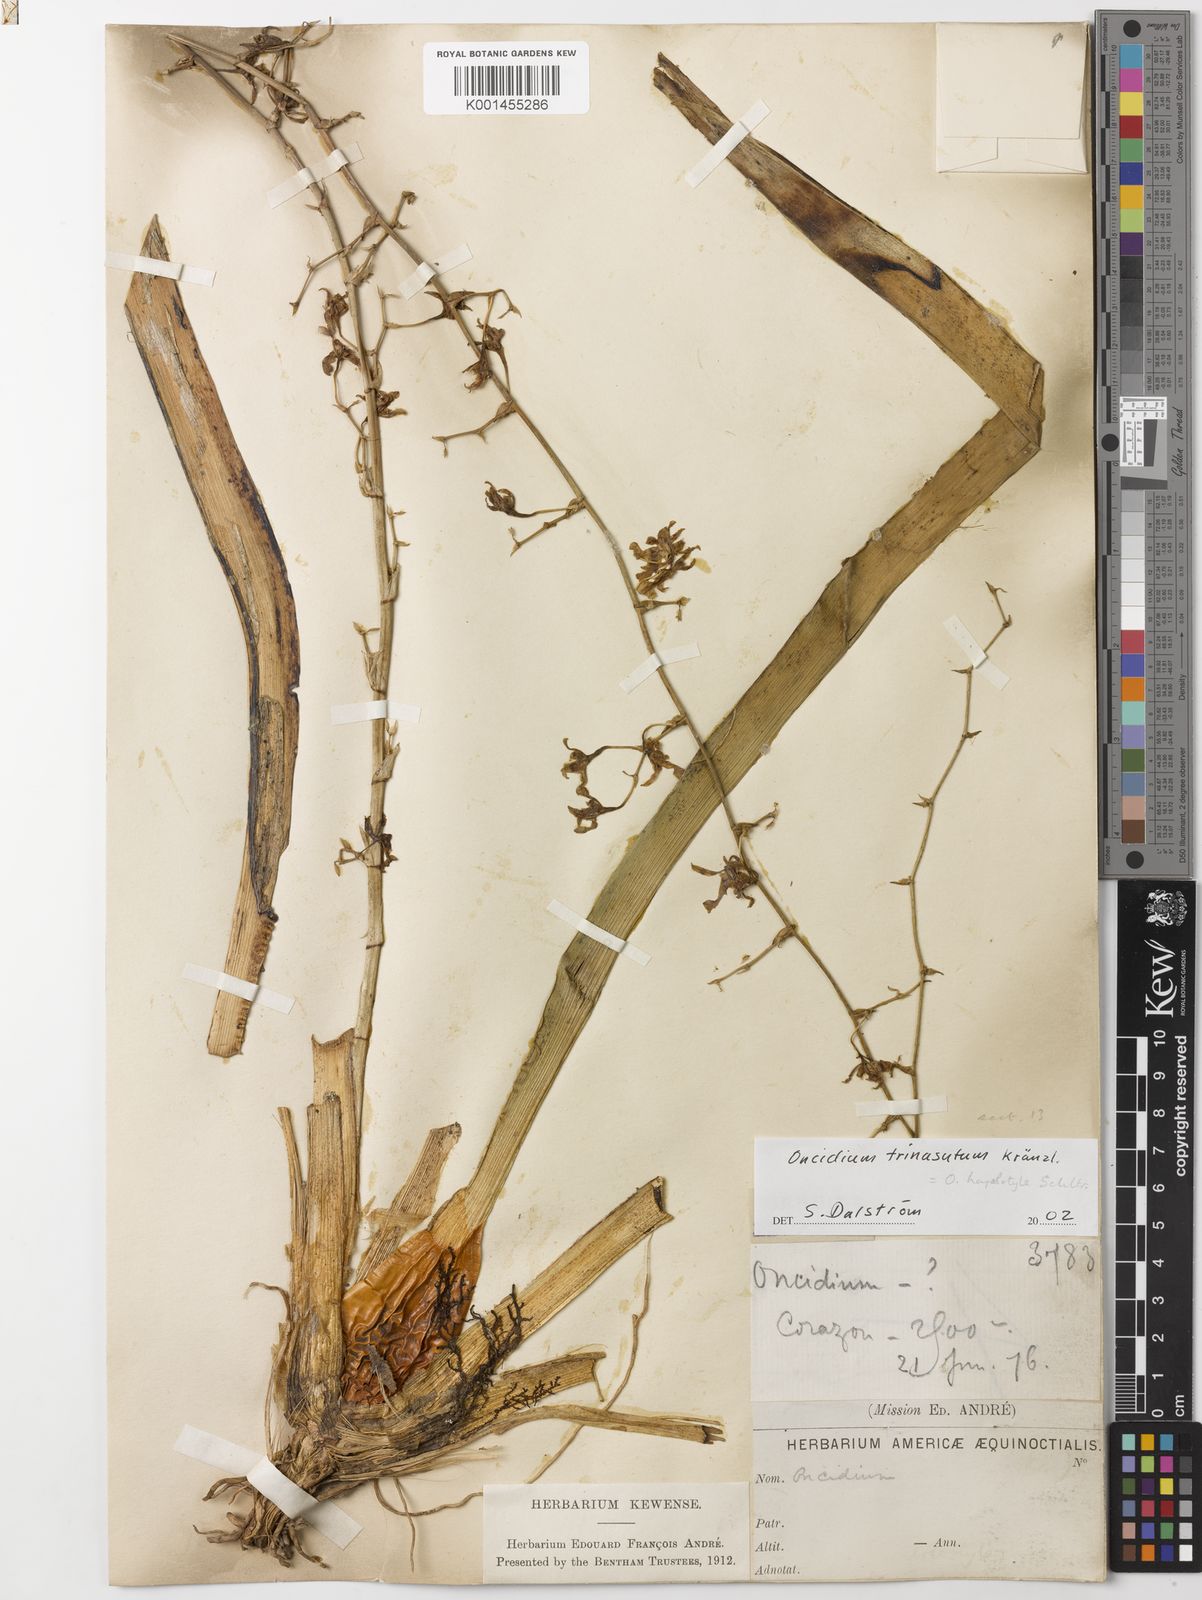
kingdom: Plantae
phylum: Tracheophyta
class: Liliopsida
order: Asparagales
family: Orchidaceae
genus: Oncidium
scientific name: Oncidium hapalotyle
